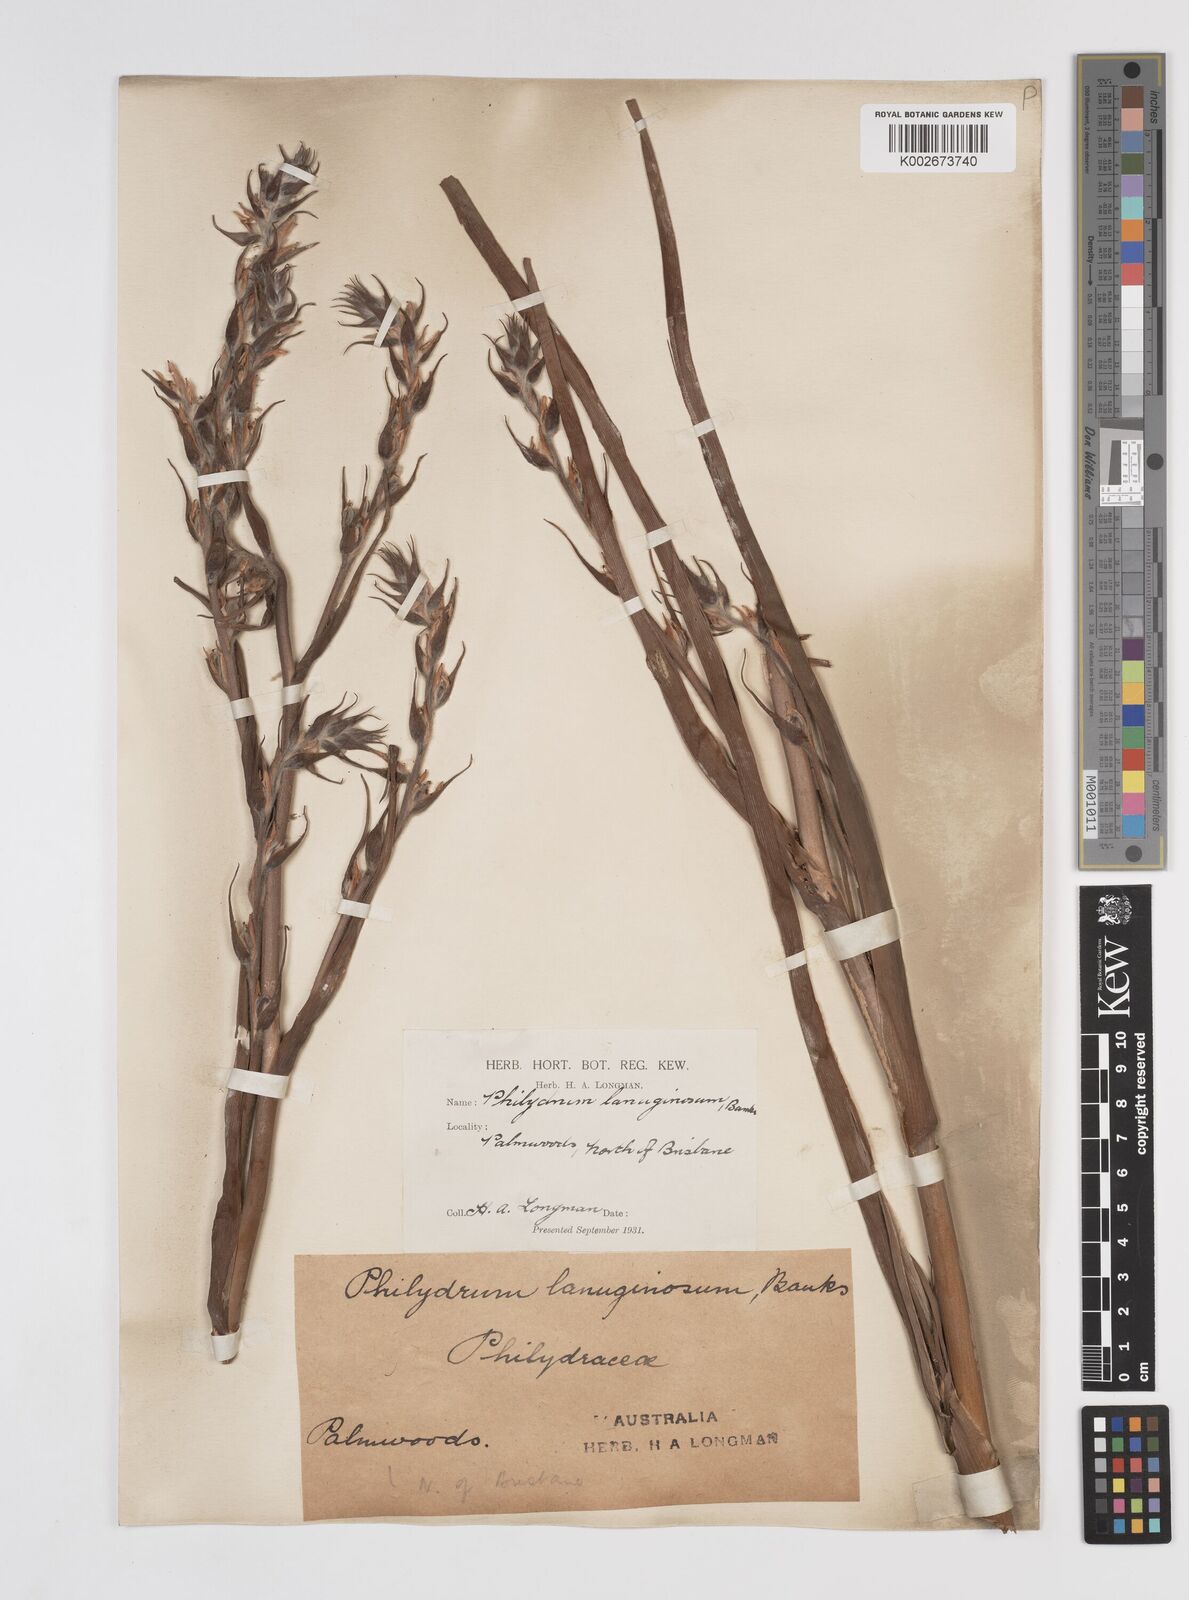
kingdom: Plantae
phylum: Tracheophyta
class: Liliopsida
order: Commelinales
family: Philydraceae
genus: Philydrum
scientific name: Philydrum lanuginosum
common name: Woolly frog's mouth
